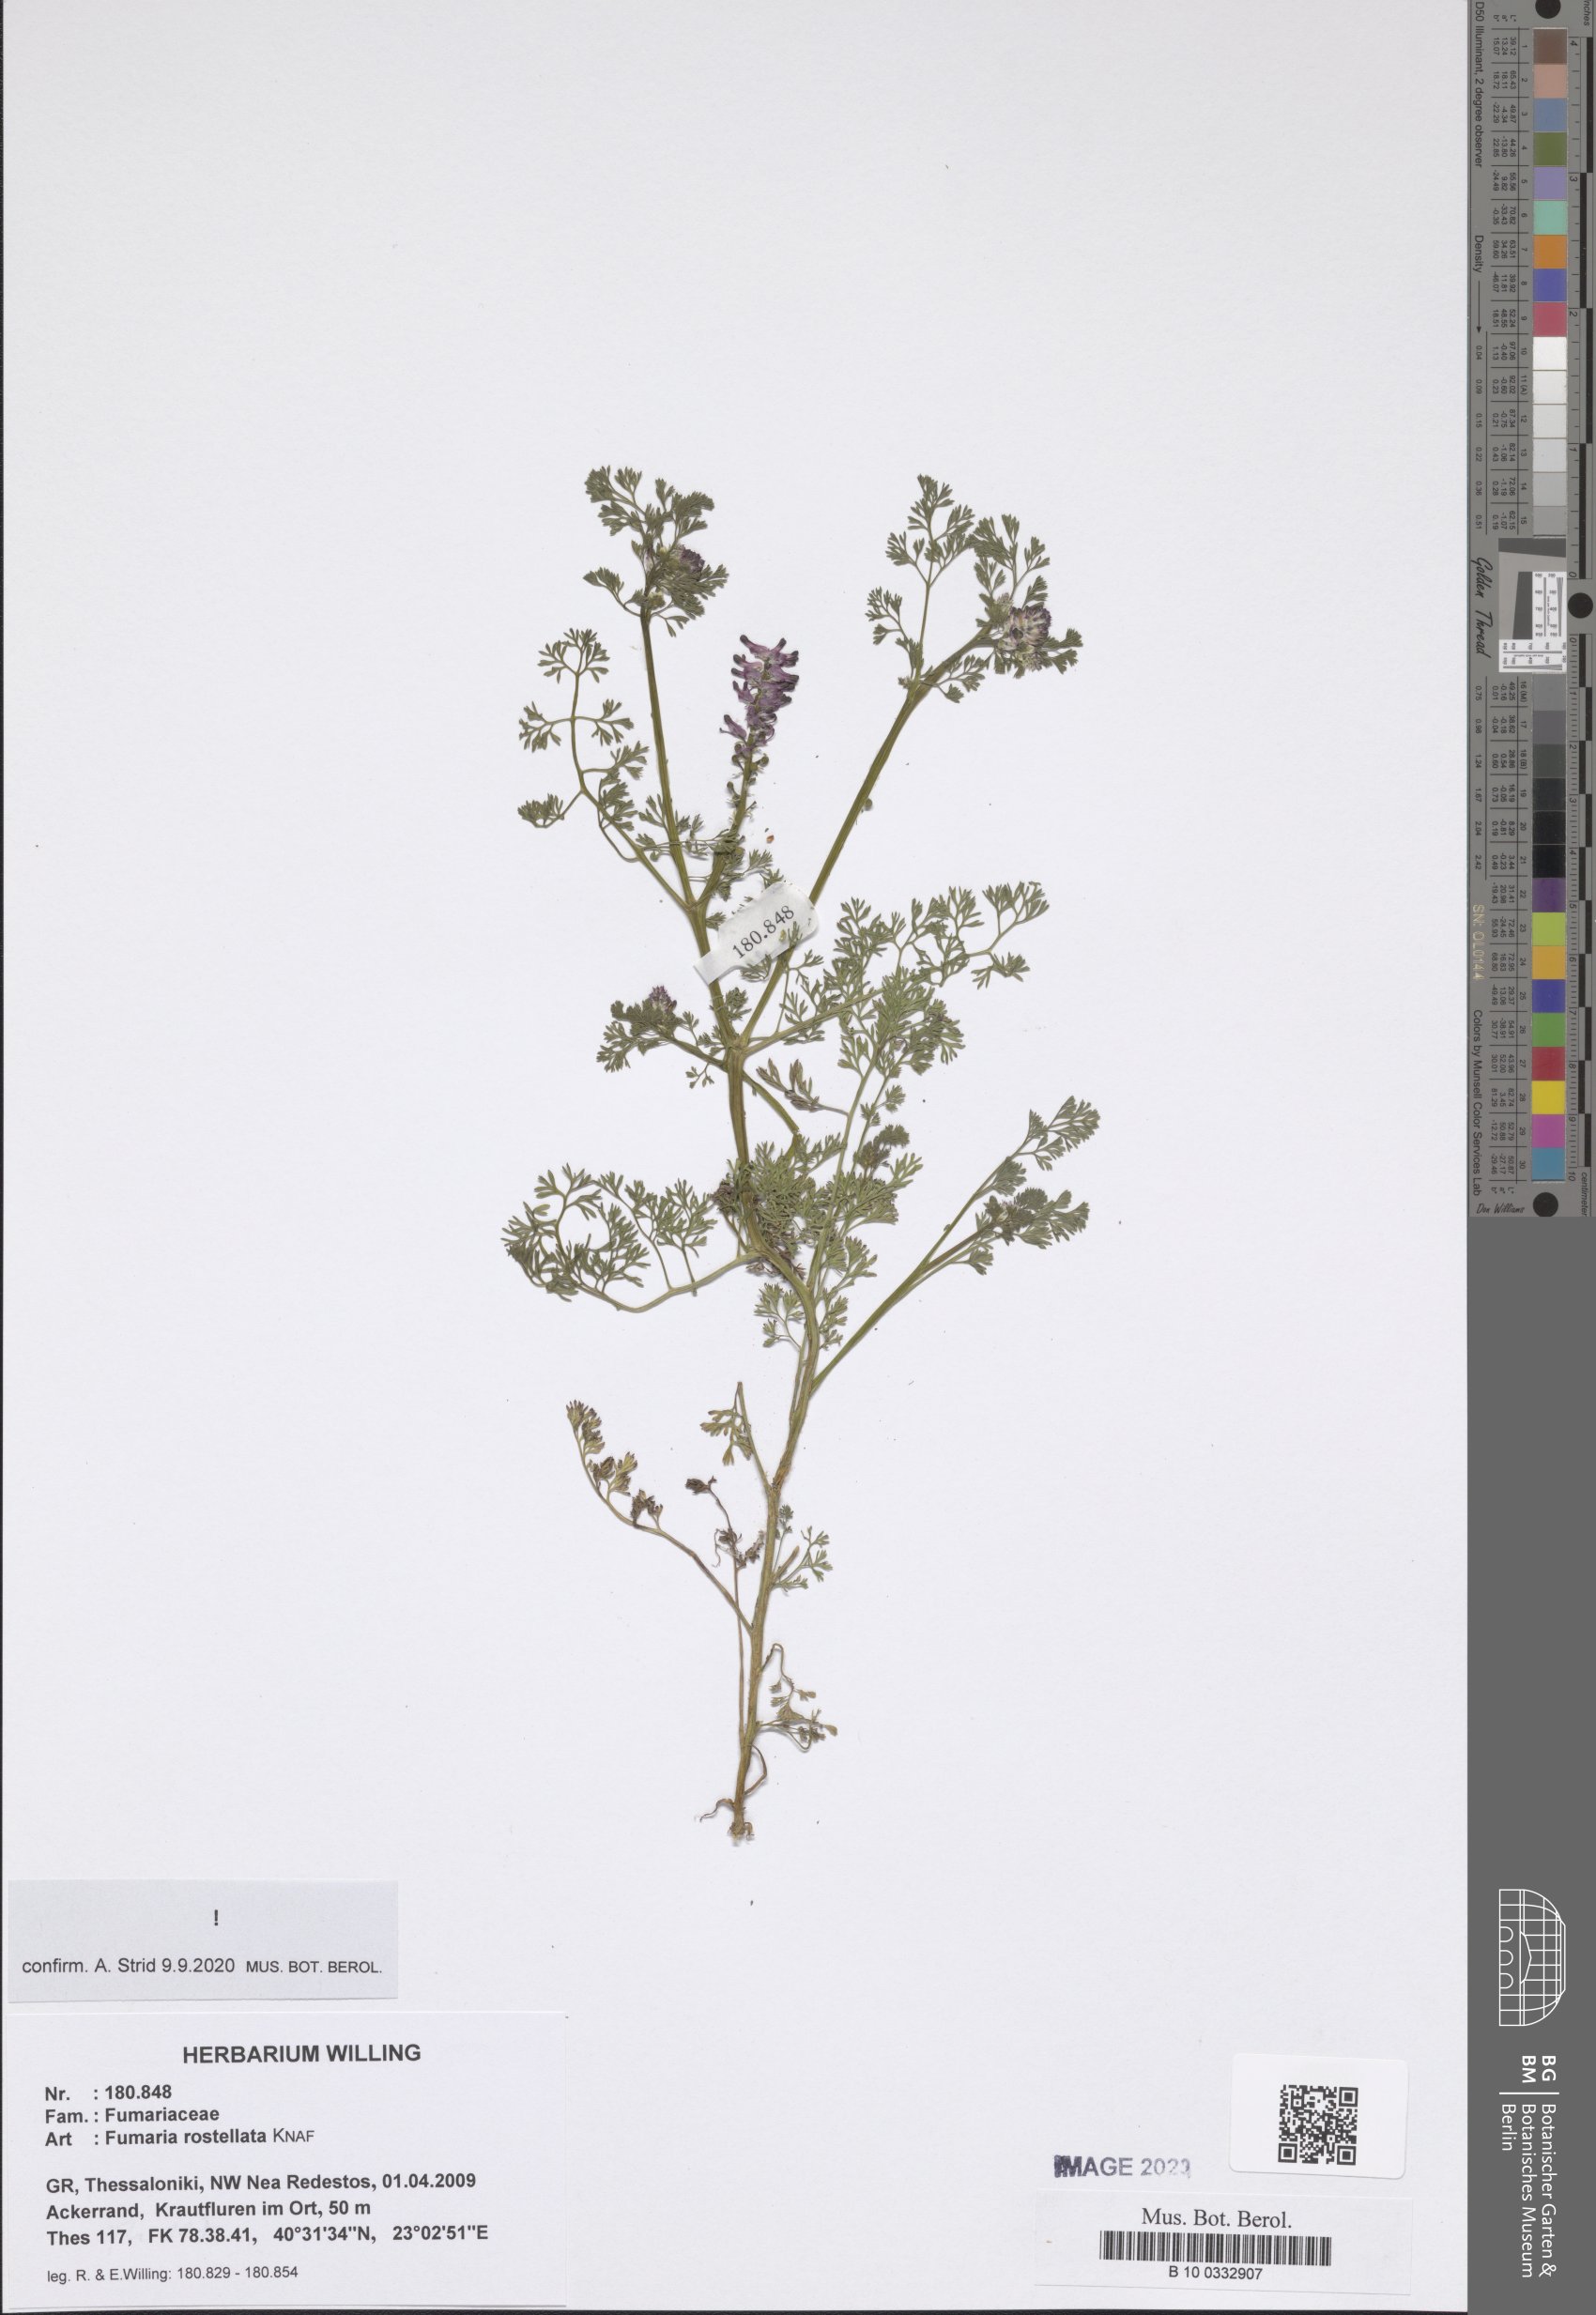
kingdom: Plantae
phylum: Tracheophyta
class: Magnoliopsida
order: Ranunculales
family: Papaveraceae
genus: Fumaria
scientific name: Fumaria rostellata
